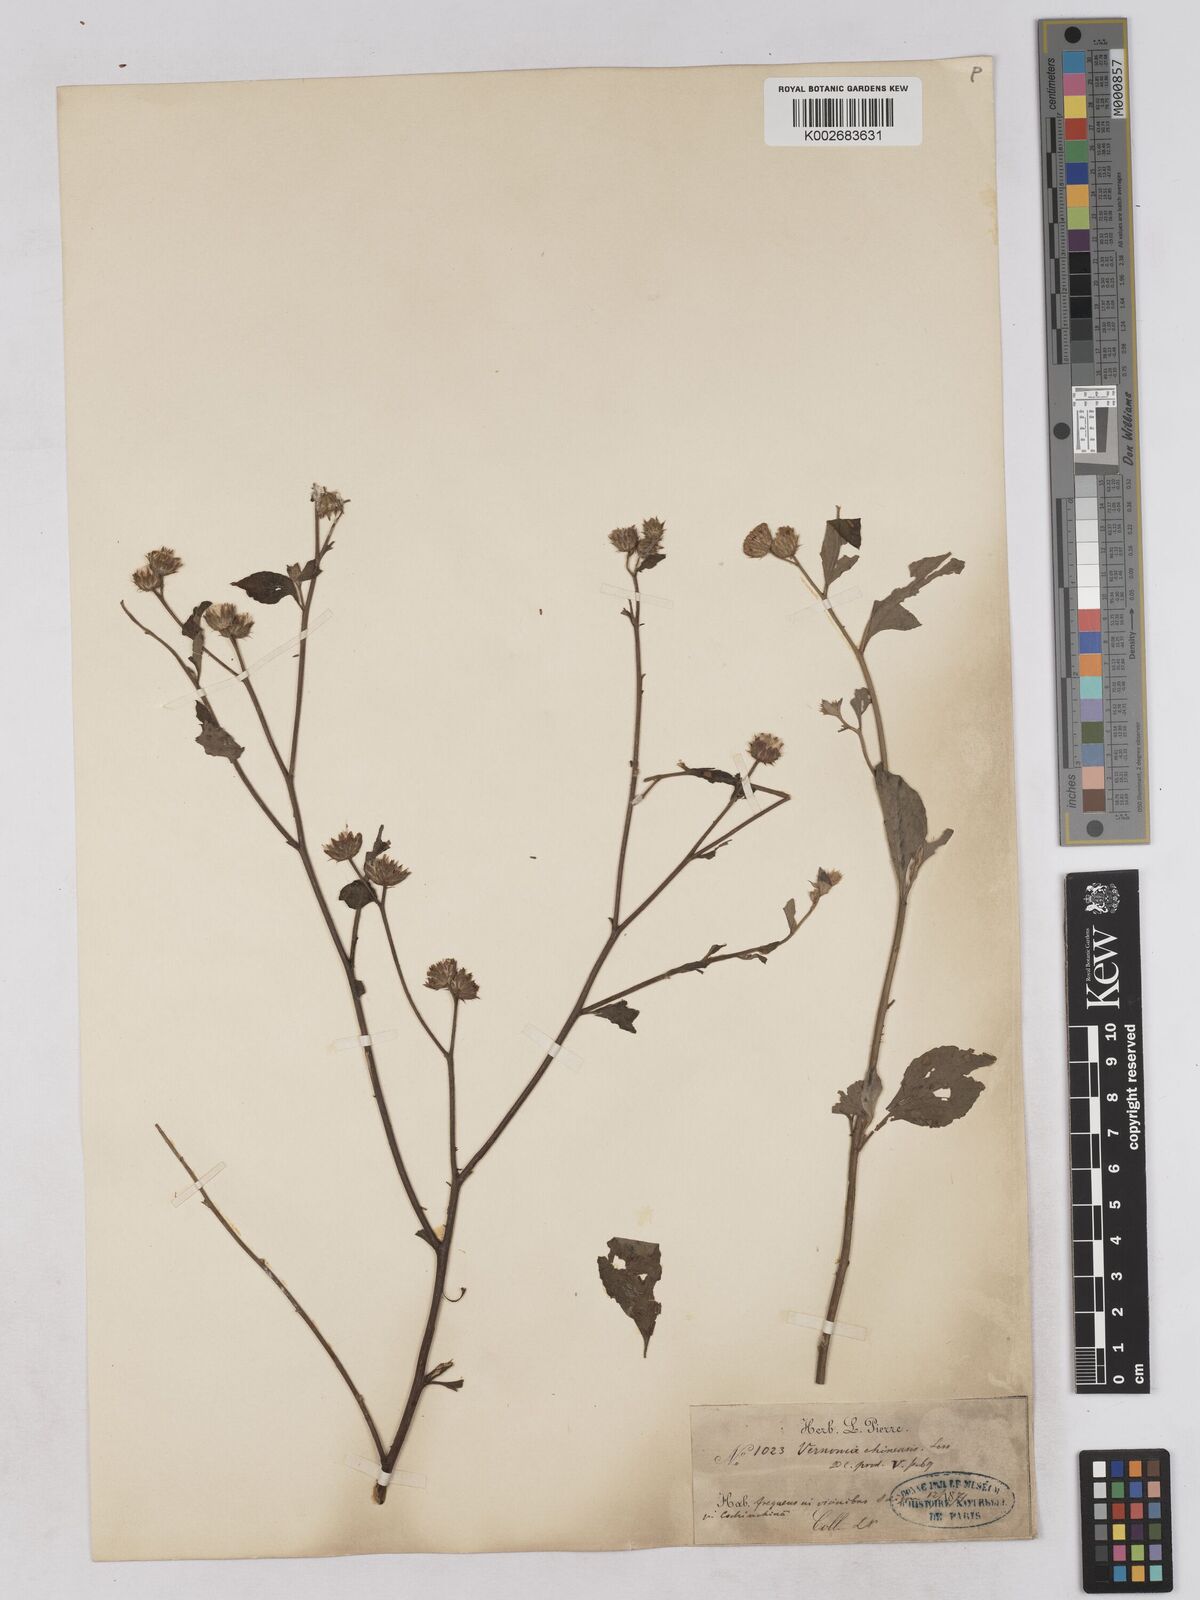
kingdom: Plantae
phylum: Tracheophyta
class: Magnoliopsida
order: Asterales
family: Asteraceae
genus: Cyanthillium
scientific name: Cyanthillium patulum
